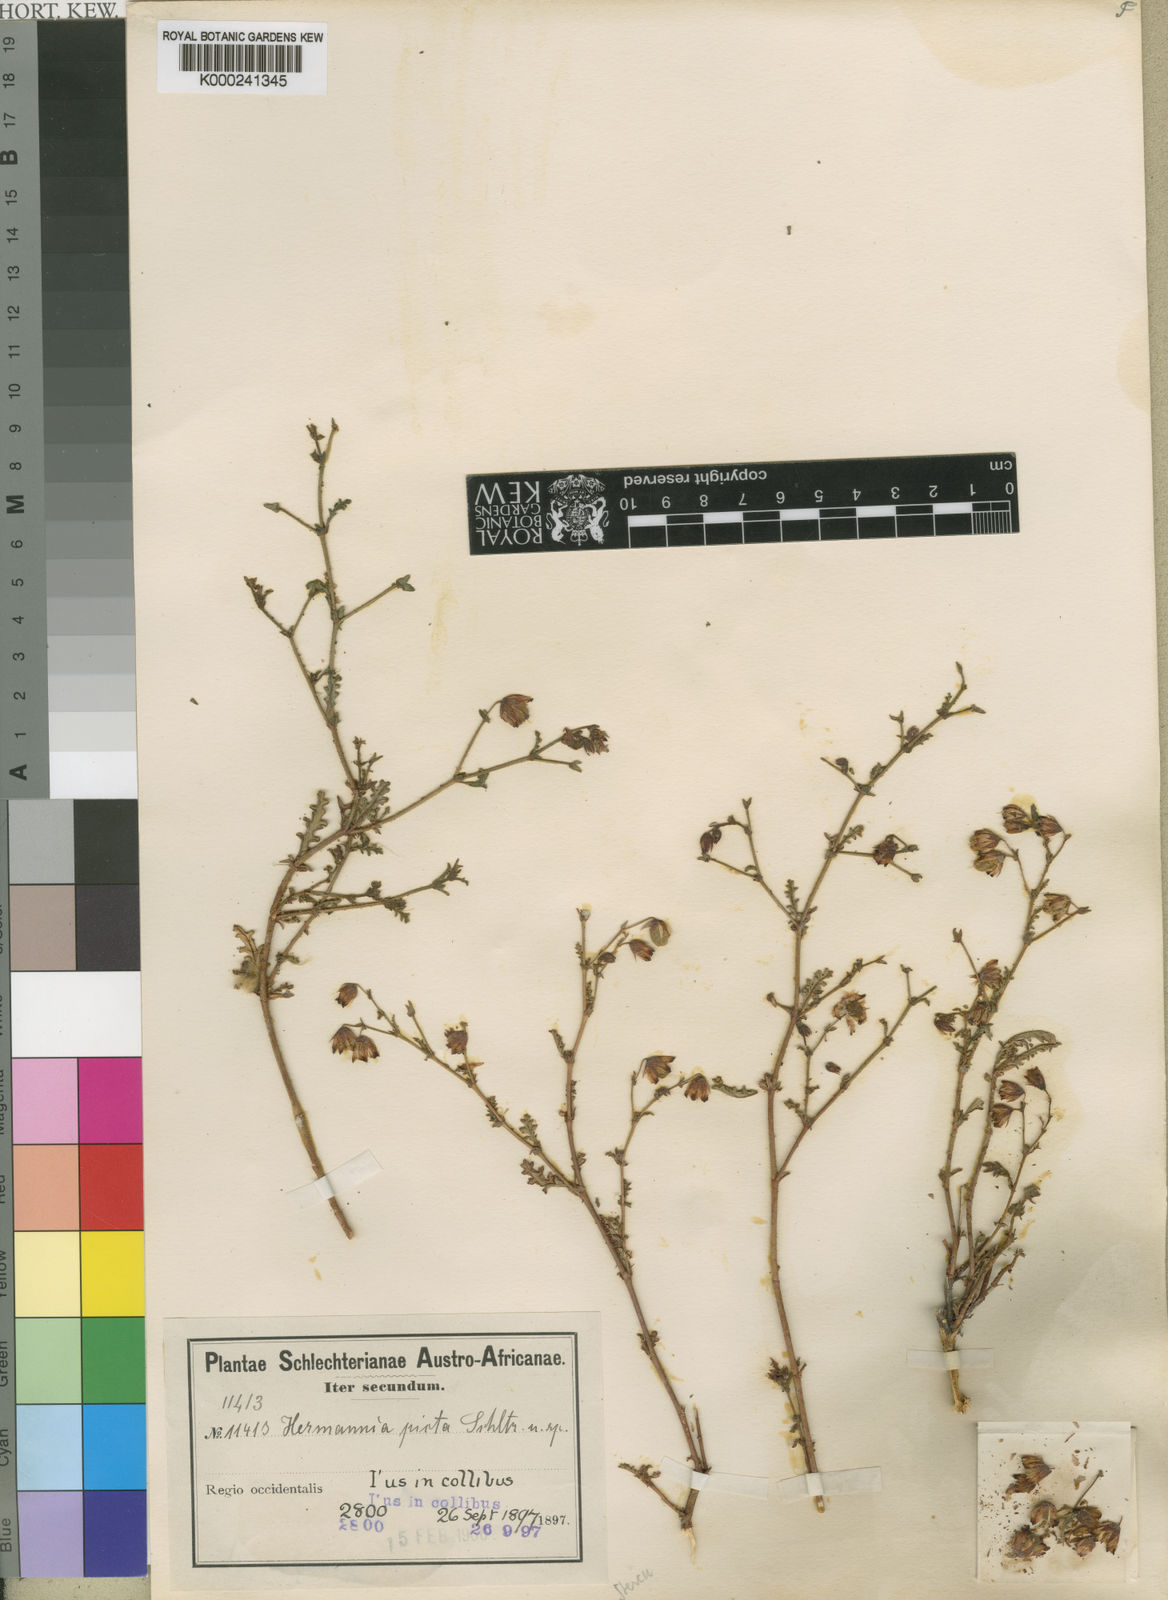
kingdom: Plantae
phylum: Tracheophyta
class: Magnoliopsida
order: Malvales
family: Malvaceae
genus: Hermannia
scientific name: Hermannia
